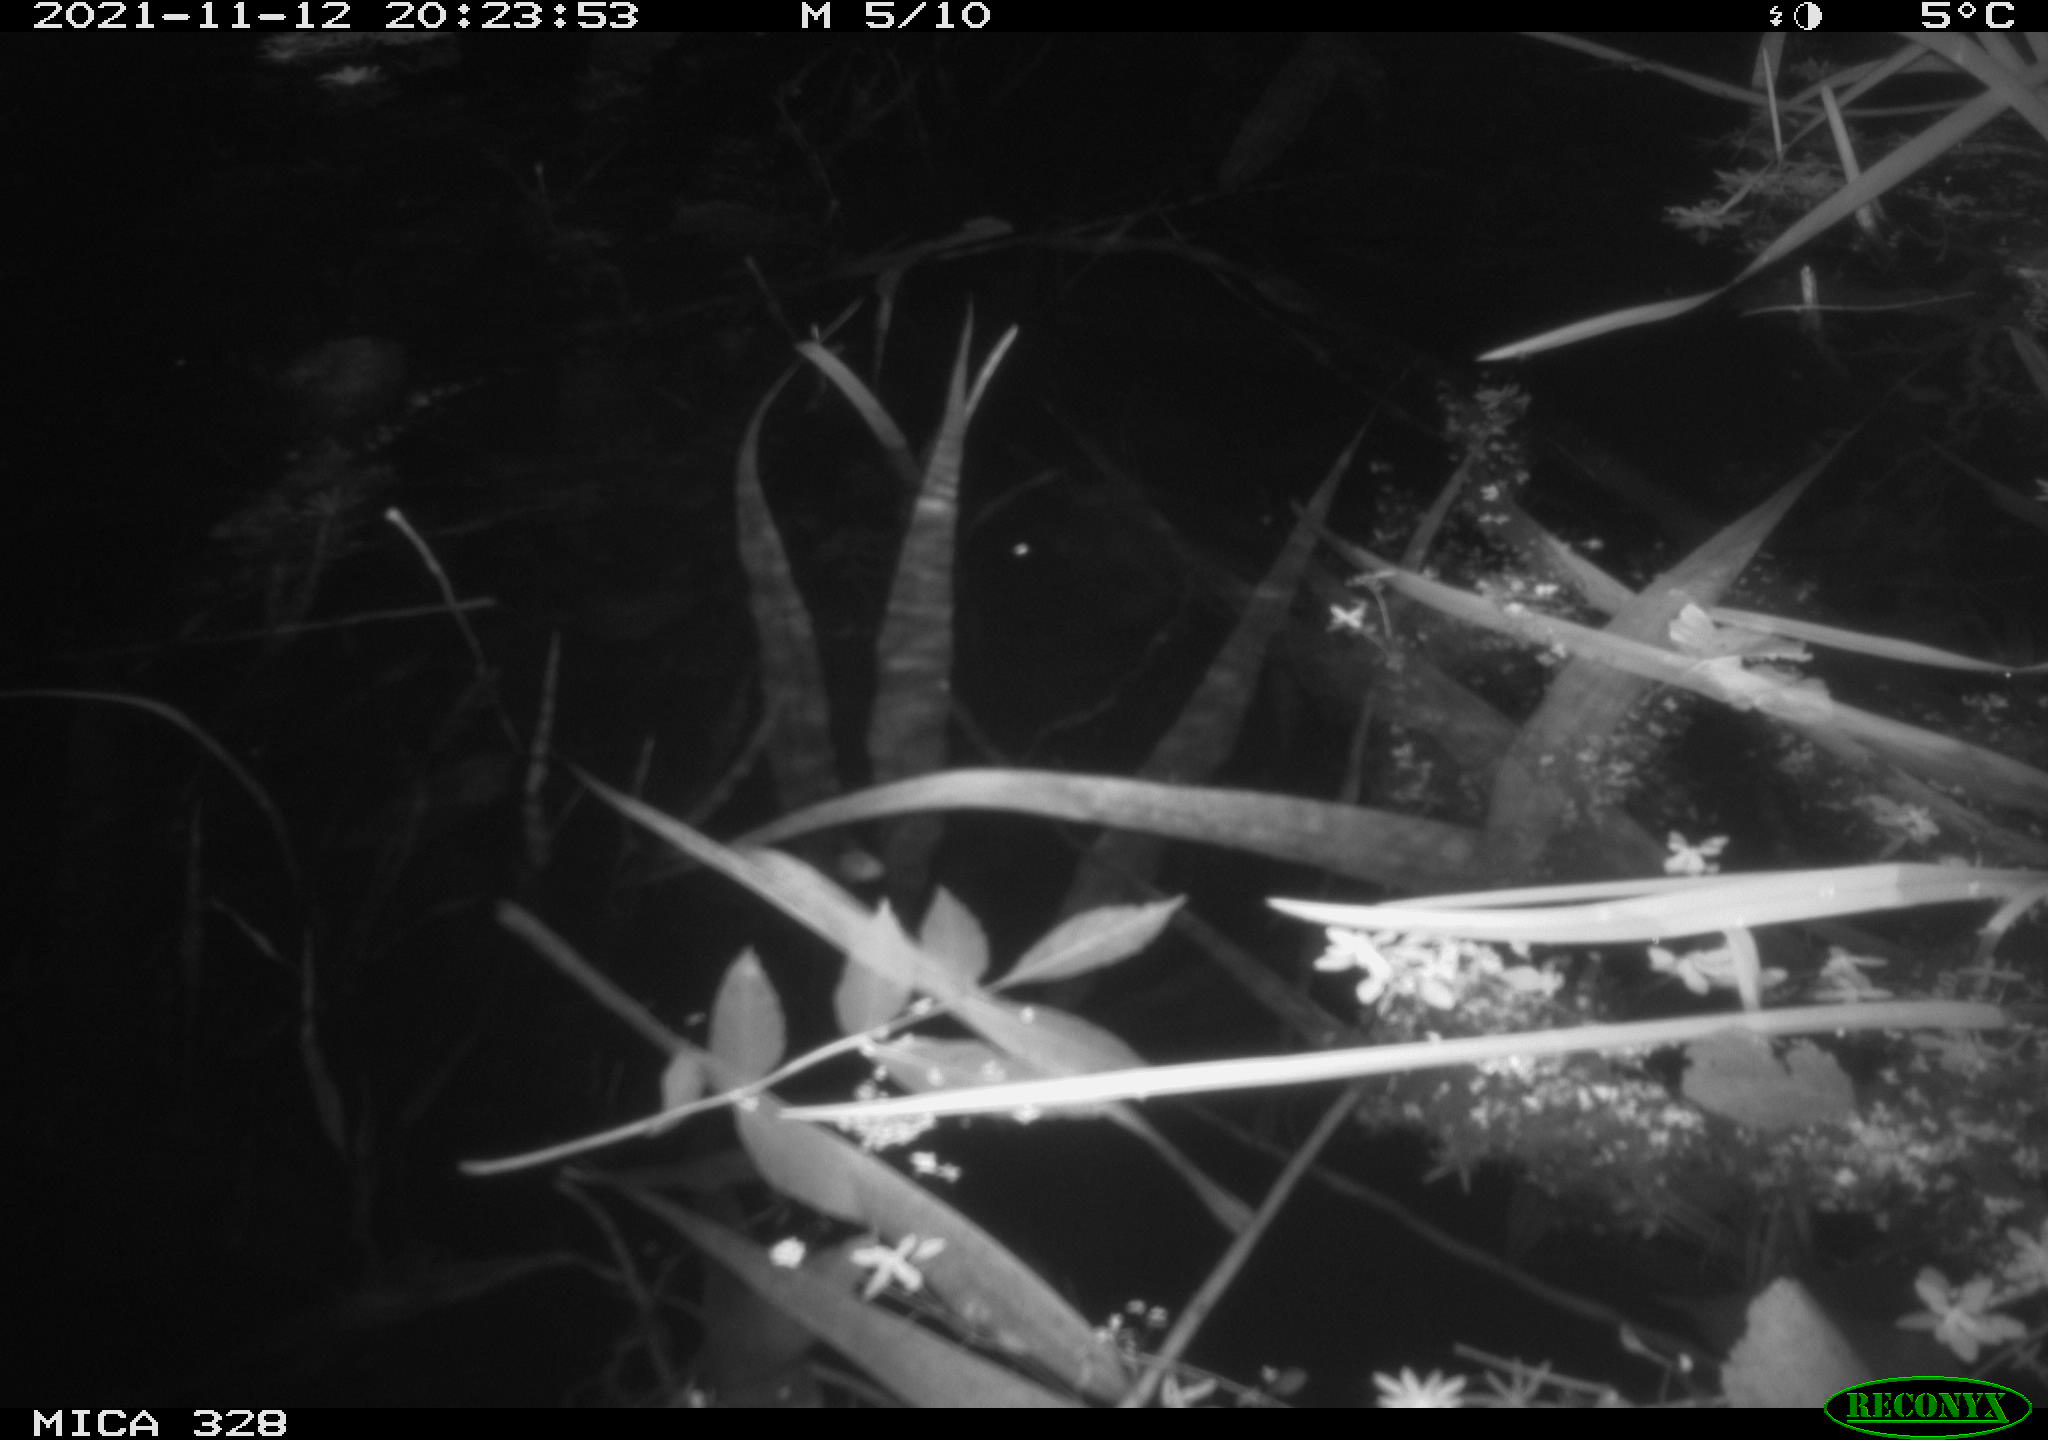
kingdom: Animalia
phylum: Chordata
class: Mammalia
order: Rodentia
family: Cricetidae
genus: Ondatra
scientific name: Ondatra zibethicus
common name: Muskrat
